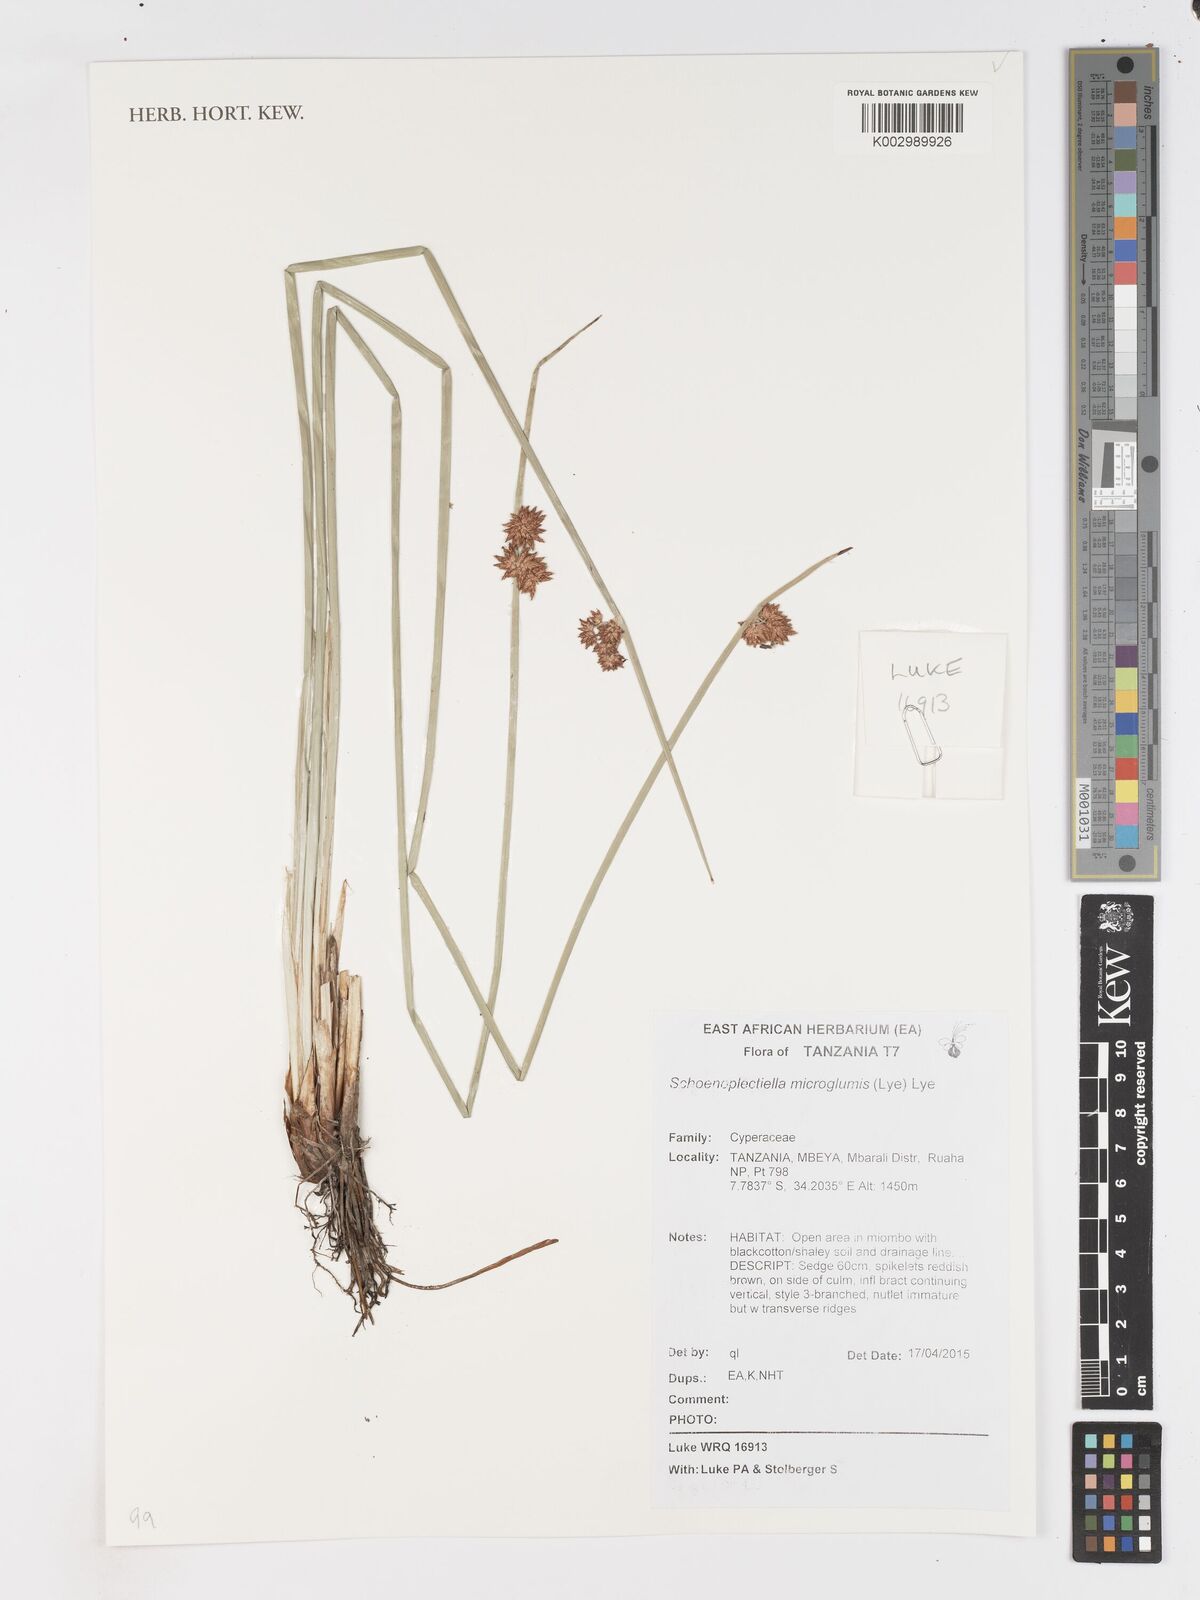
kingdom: Plantae
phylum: Tracheophyta
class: Liliopsida
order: Poales
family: Cyperaceae
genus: Schoenoplectiella
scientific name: Schoenoplectiella microglumis
